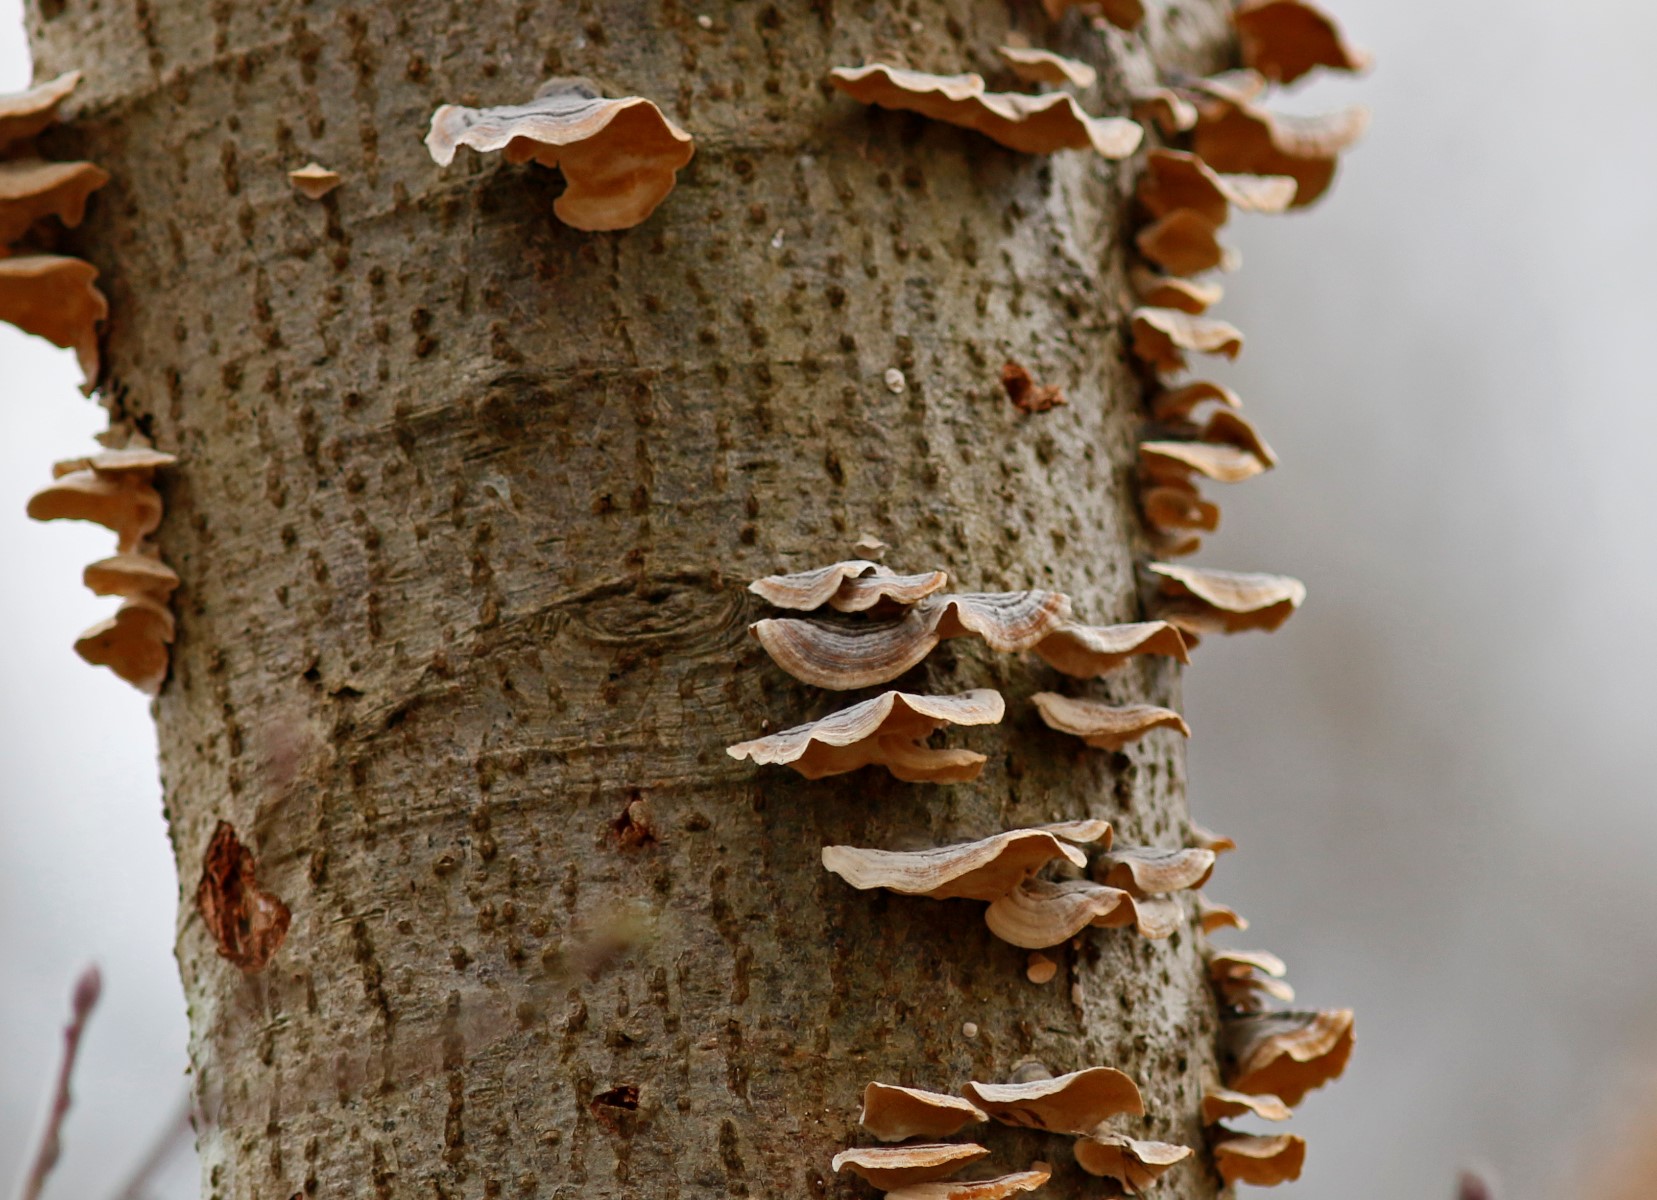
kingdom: Fungi
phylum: Basidiomycota
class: Agaricomycetes
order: Polyporales
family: Polyporaceae
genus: Trametes
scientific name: Trametes
